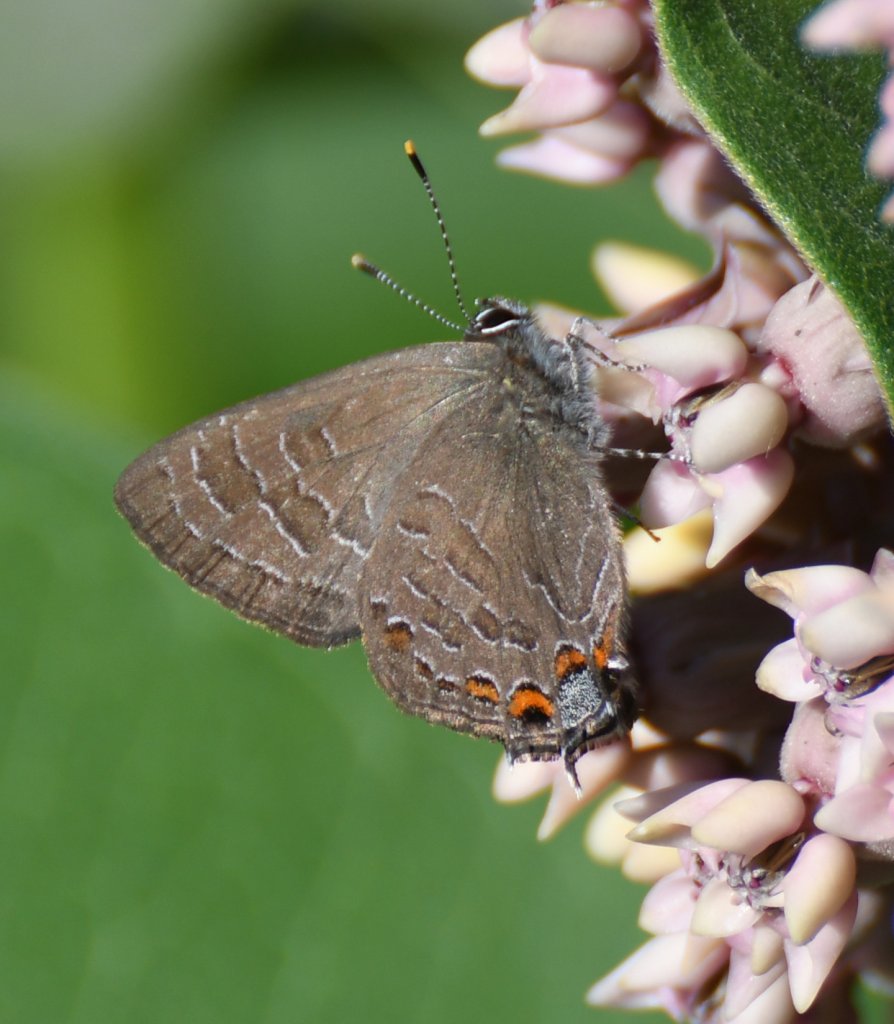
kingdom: Animalia
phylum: Arthropoda
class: Insecta
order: Lepidoptera
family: Lycaenidae
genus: Satyrium
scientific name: Satyrium liparops
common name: Striped Hairstreak
